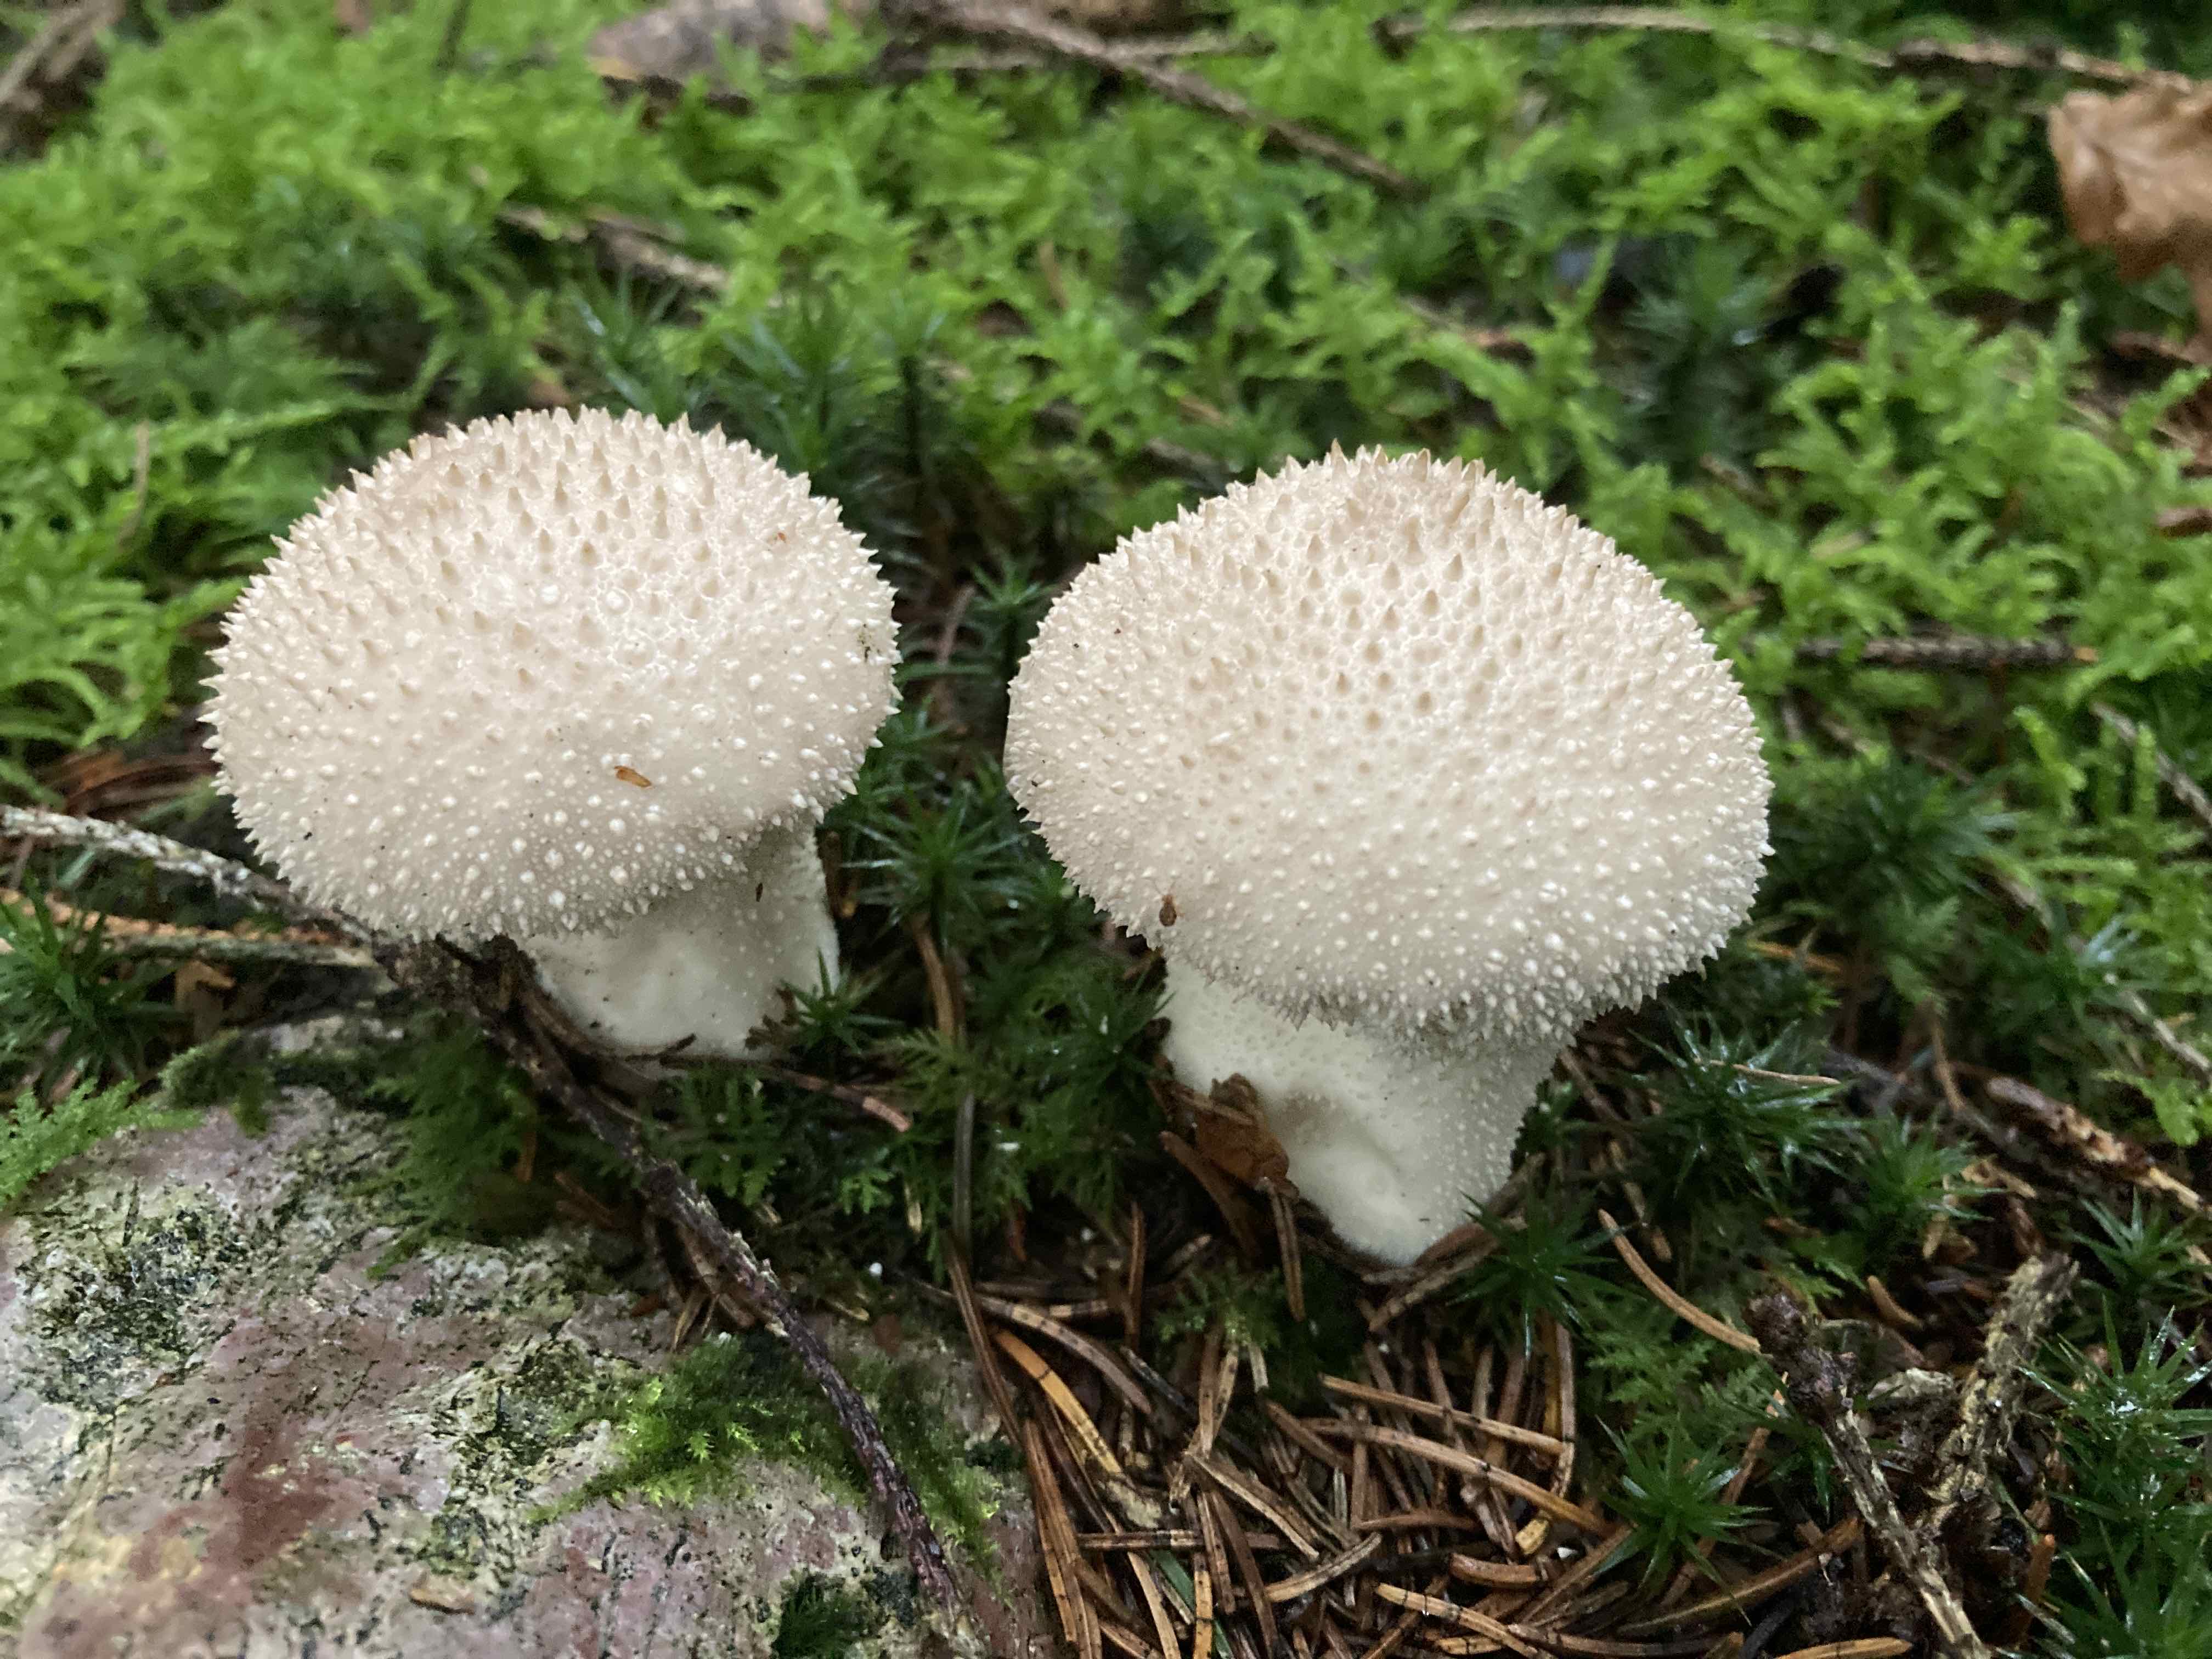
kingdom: Fungi
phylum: Basidiomycota
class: Agaricomycetes
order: Agaricales
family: Lycoperdaceae
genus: Lycoperdon
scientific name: Lycoperdon perlatum
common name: krystal-støvbold
